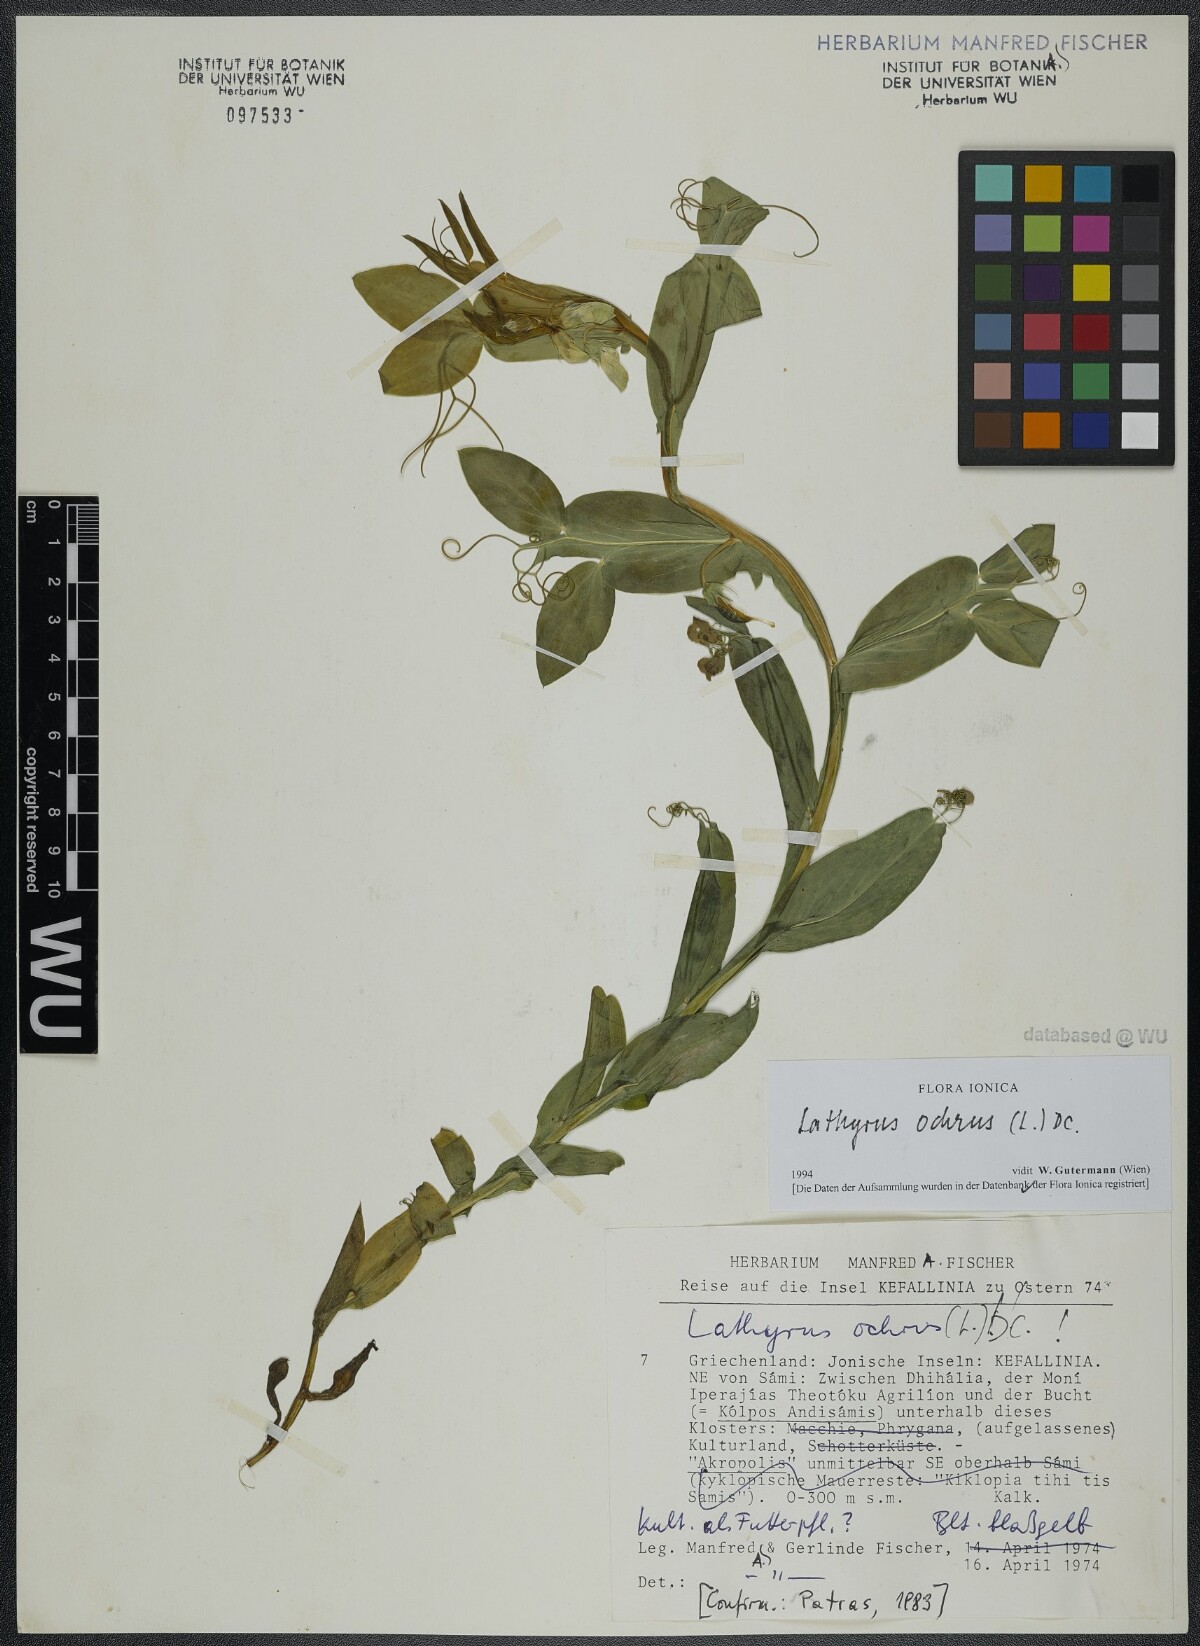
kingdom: Plantae
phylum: Tracheophyta
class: Magnoliopsida
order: Fabales
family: Fabaceae
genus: Lathyrus
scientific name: Lathyrus ochrus
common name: Winged vetchling
